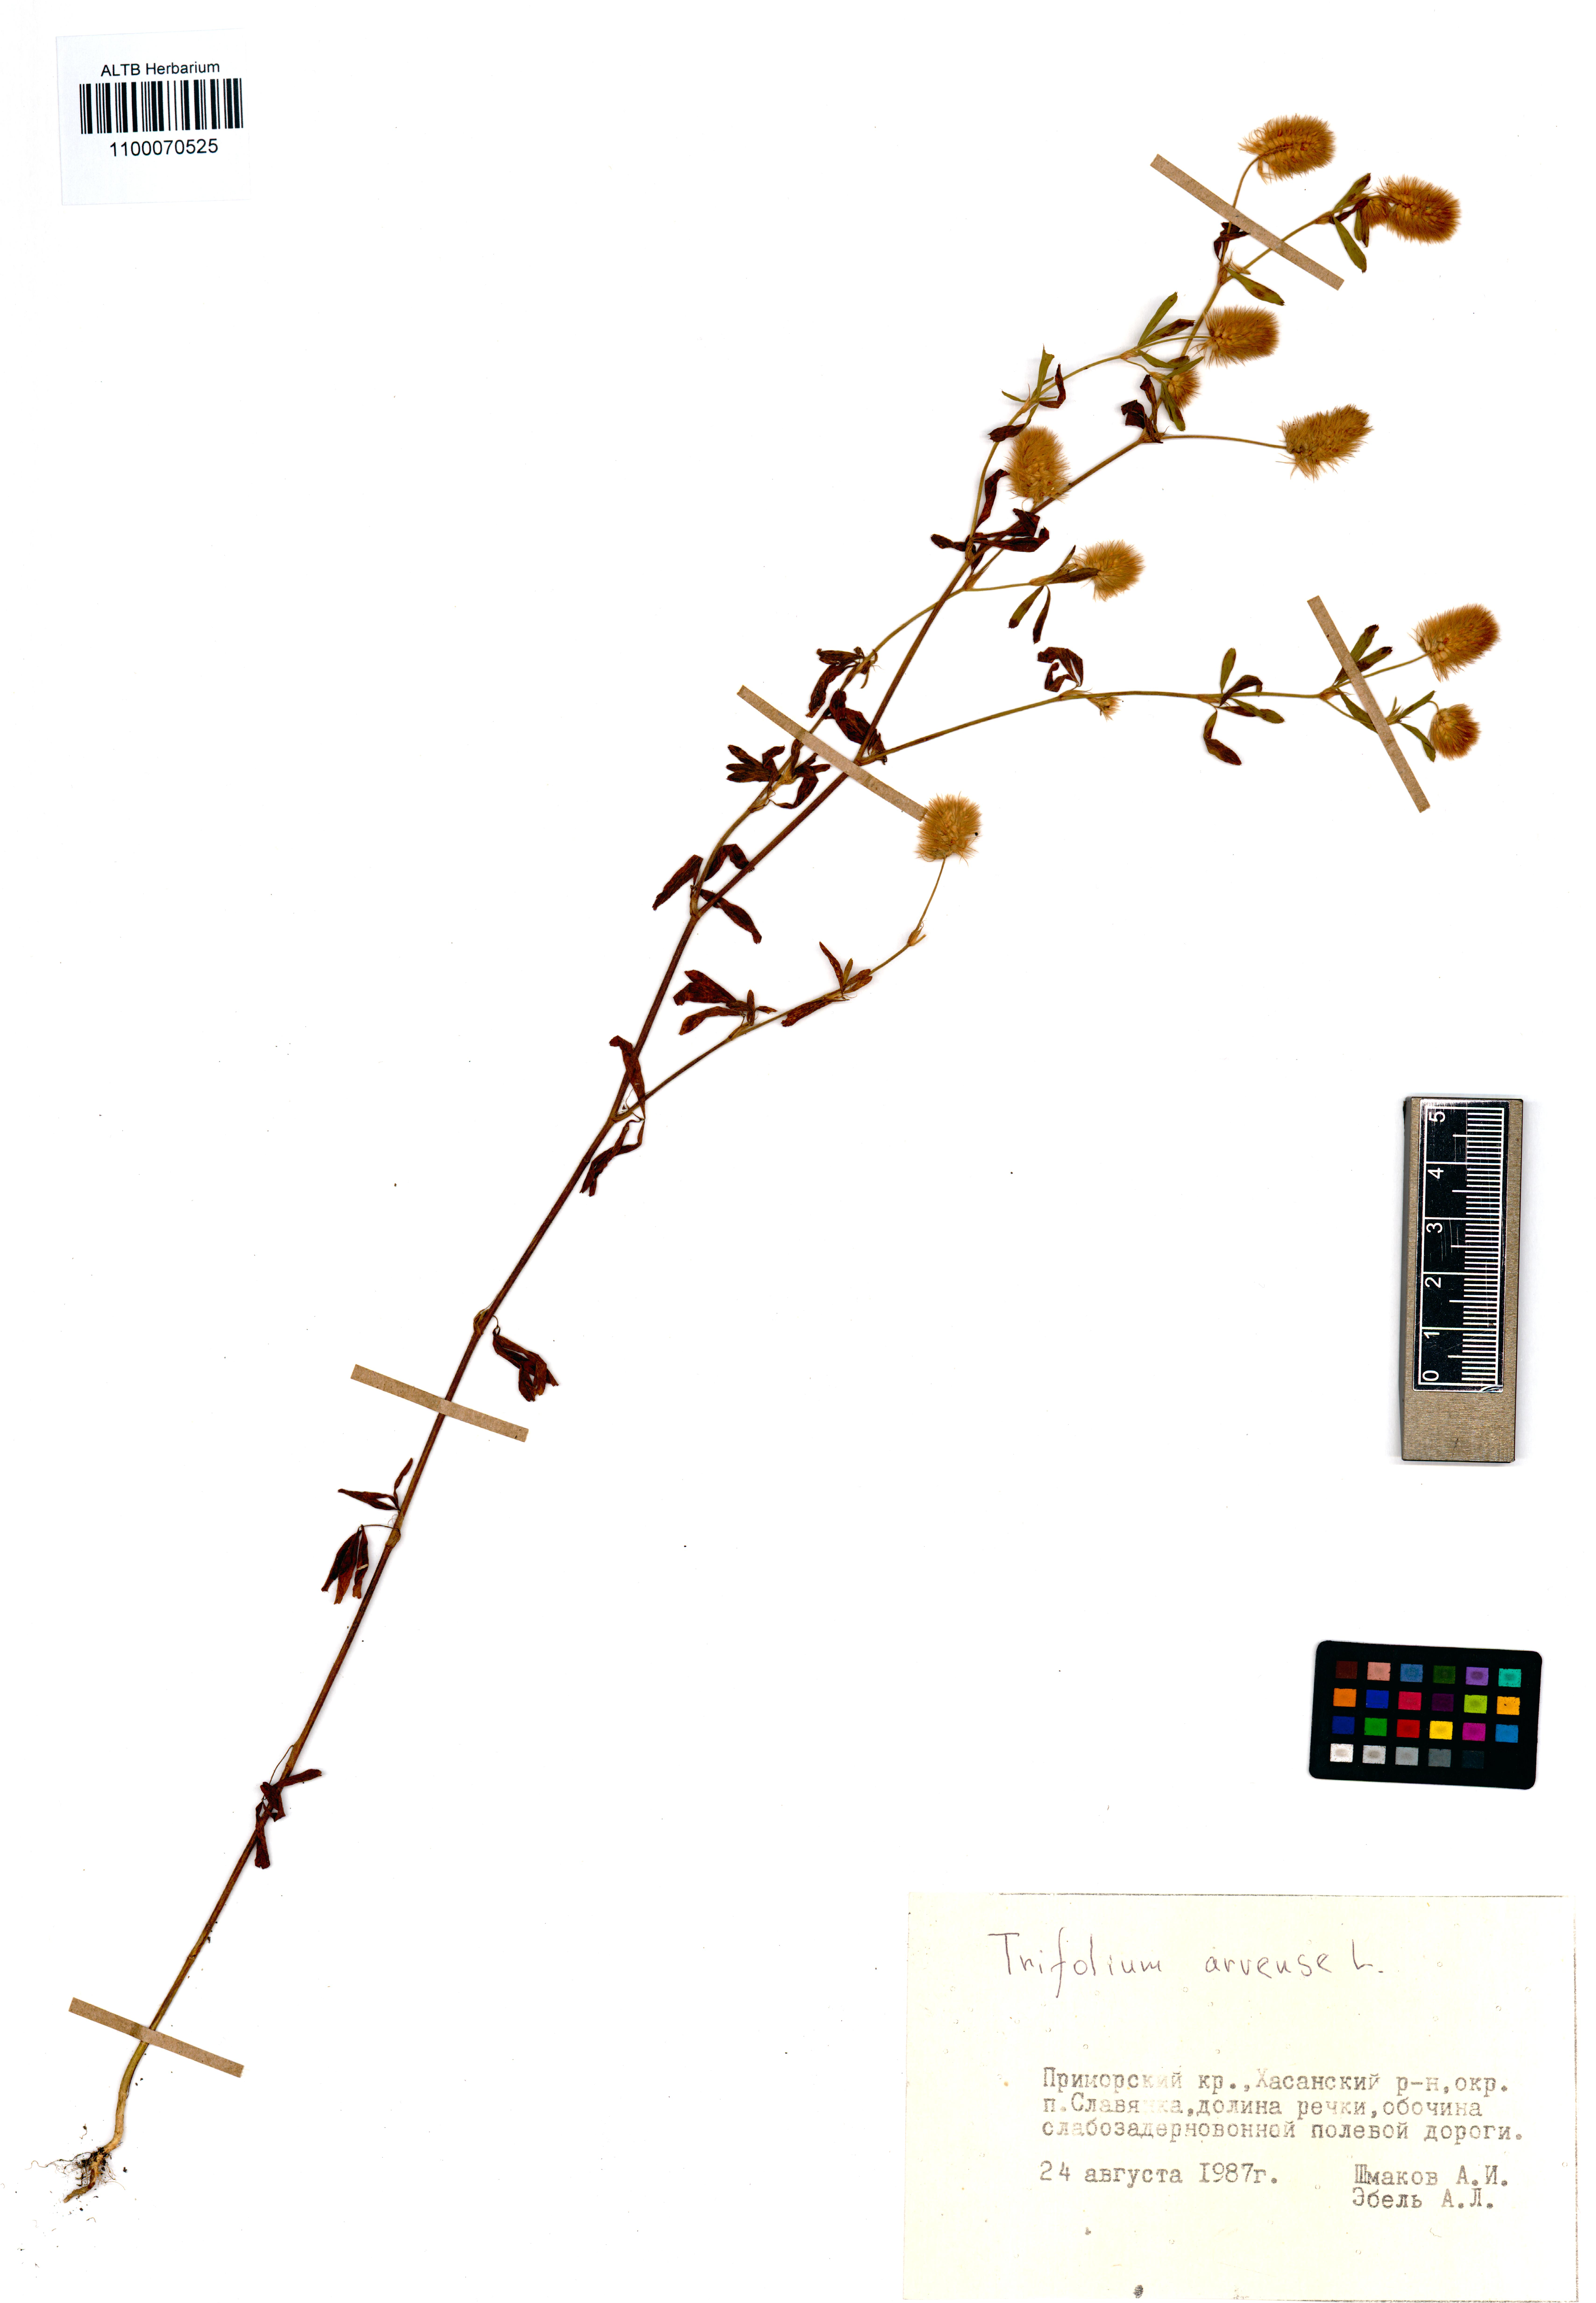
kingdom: Plantae
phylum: Tracheophyta
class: Magnoliopsida
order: Fabales
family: Fabaceae
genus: Trifolium
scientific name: Trifolium arvense
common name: Hare's-foot clover
